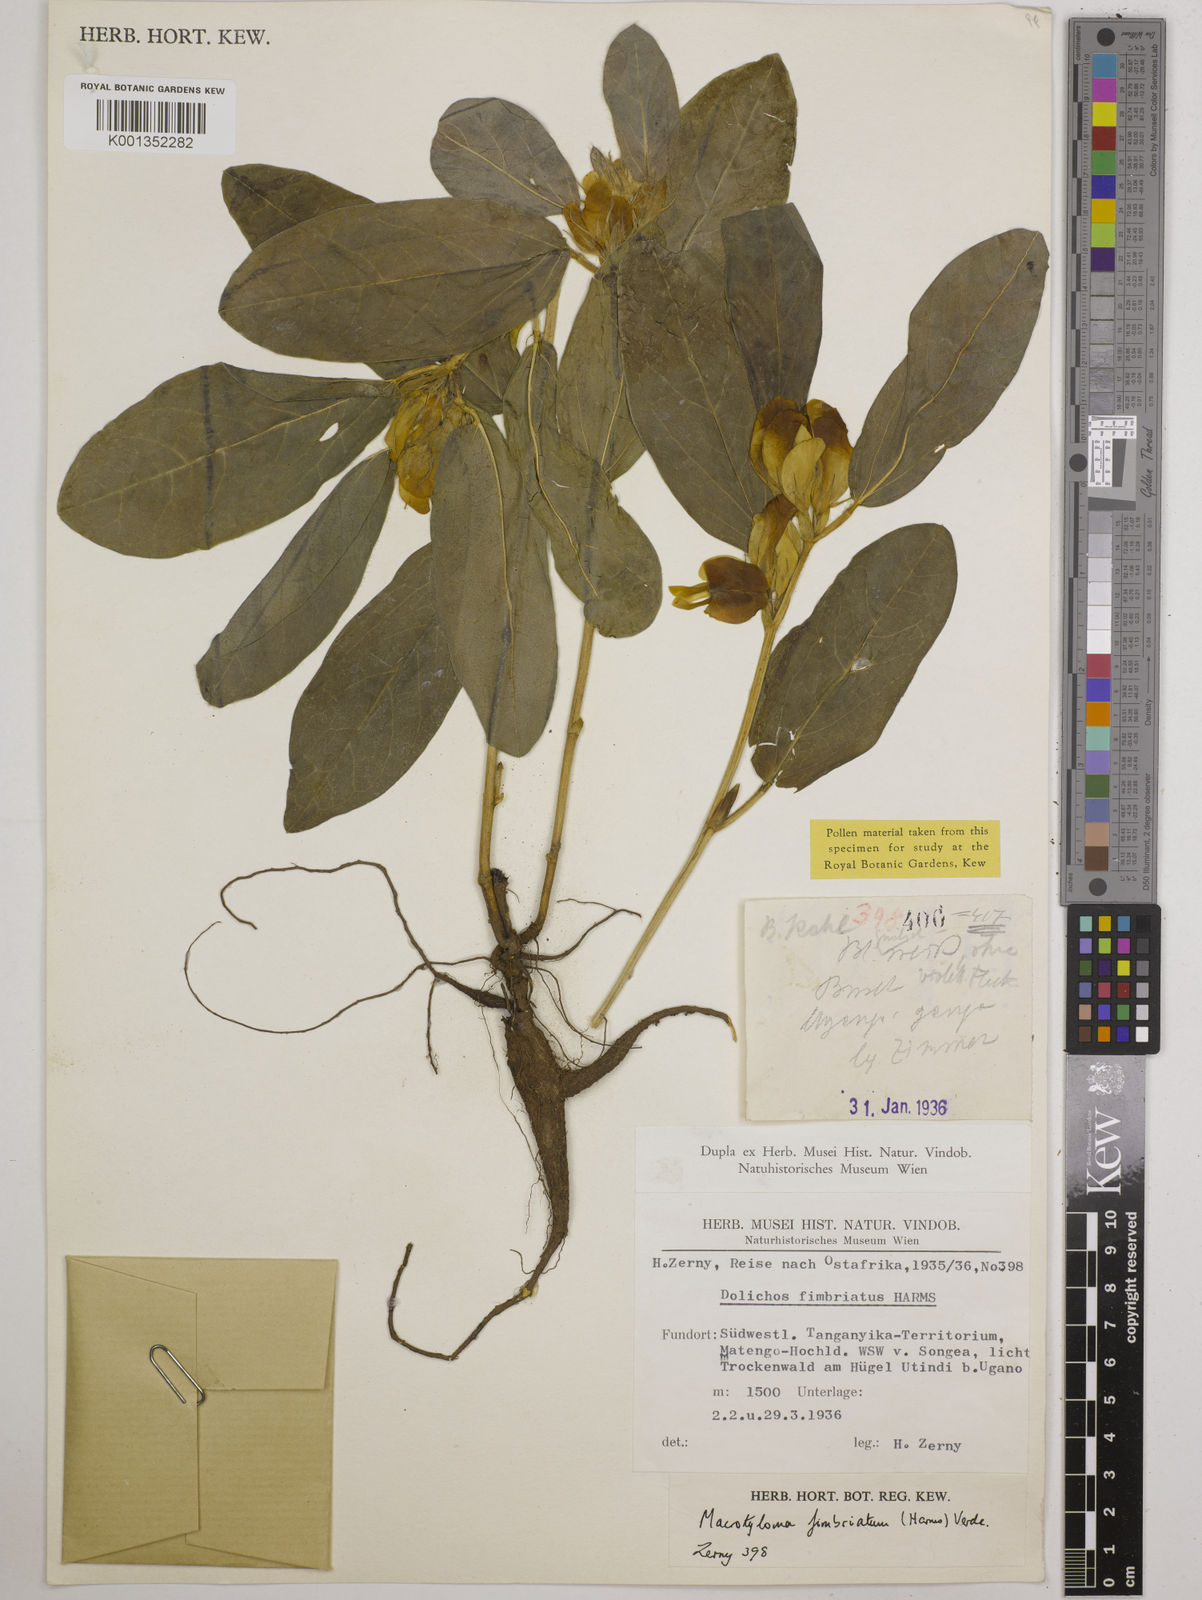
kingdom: Plantae
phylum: Tracheophyta
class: Magnoliopsida
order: Fabales
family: Fabaceae
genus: Macrotyloma
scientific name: Macrotyloma fimbriatum
